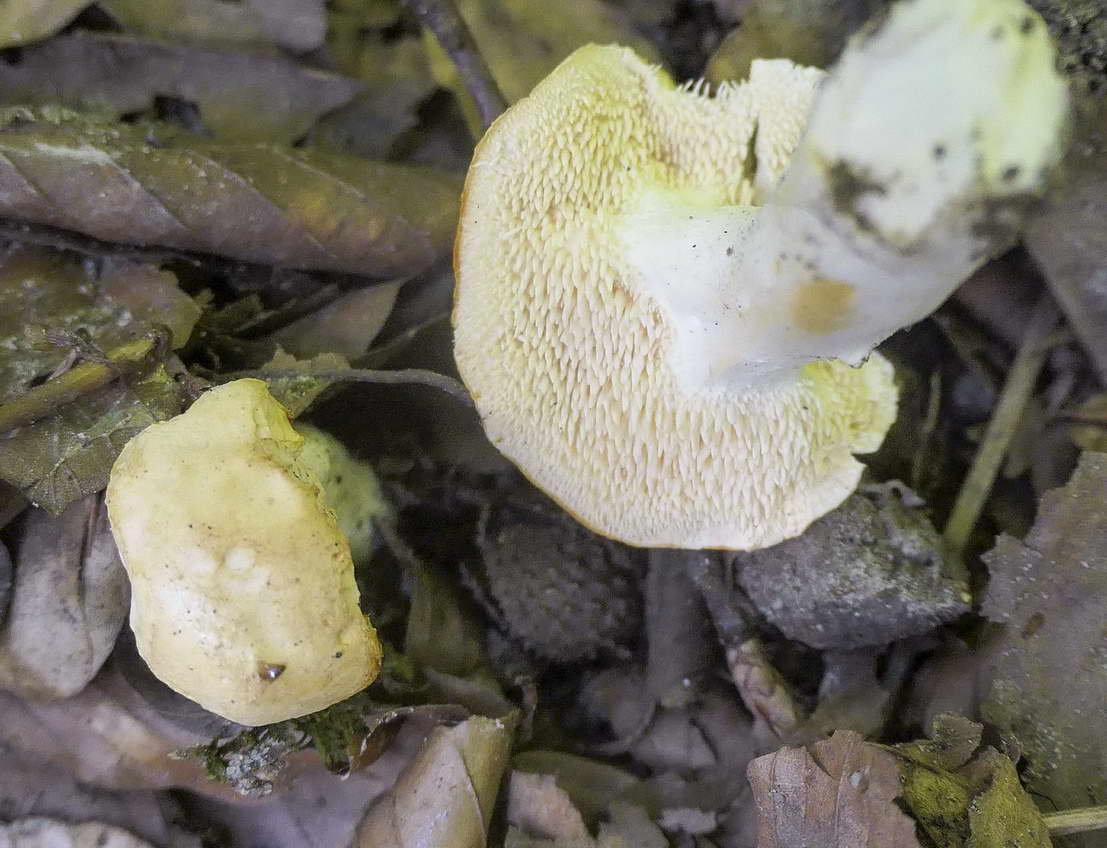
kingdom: Fungi
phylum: Basidiomycota
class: Agaricomycetes
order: Cantharellales
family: Hydnaceae
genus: Hydnum
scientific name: Hydnum
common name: pigsvamp
